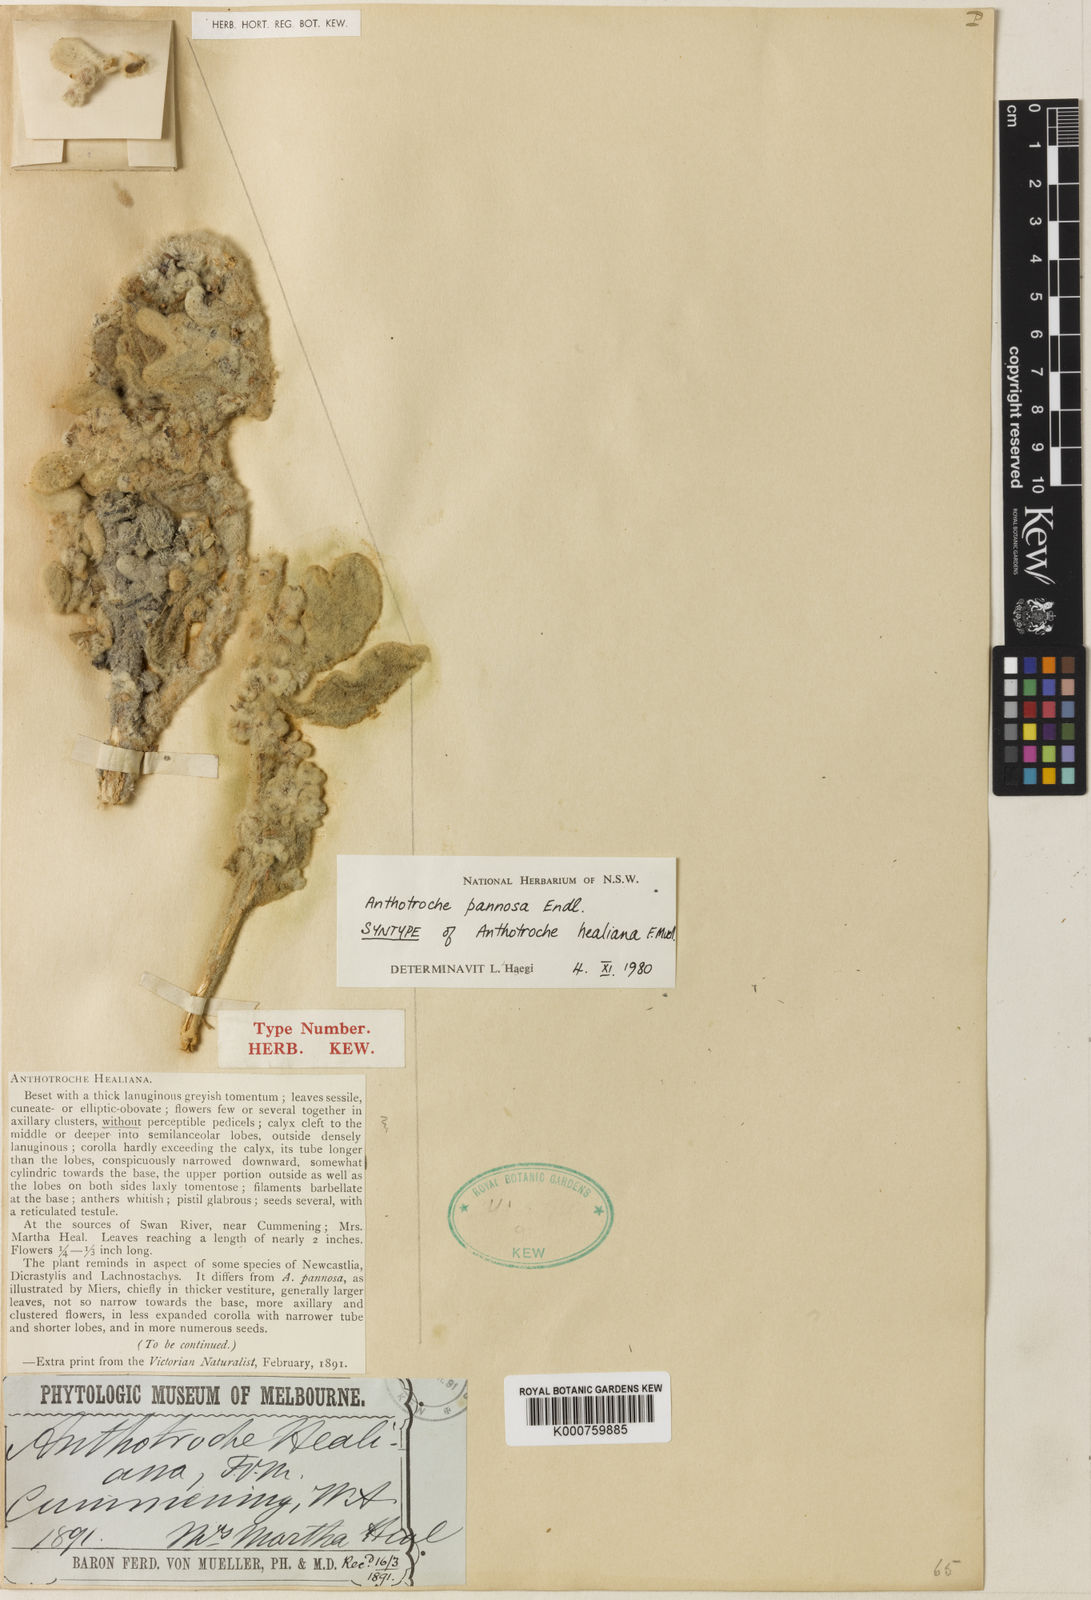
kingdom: Plantae
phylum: Tracheophyta
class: Magnoliopsida
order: Solanales
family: Solanaceae
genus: Anthotroche
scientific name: Anthotroche pannosa
